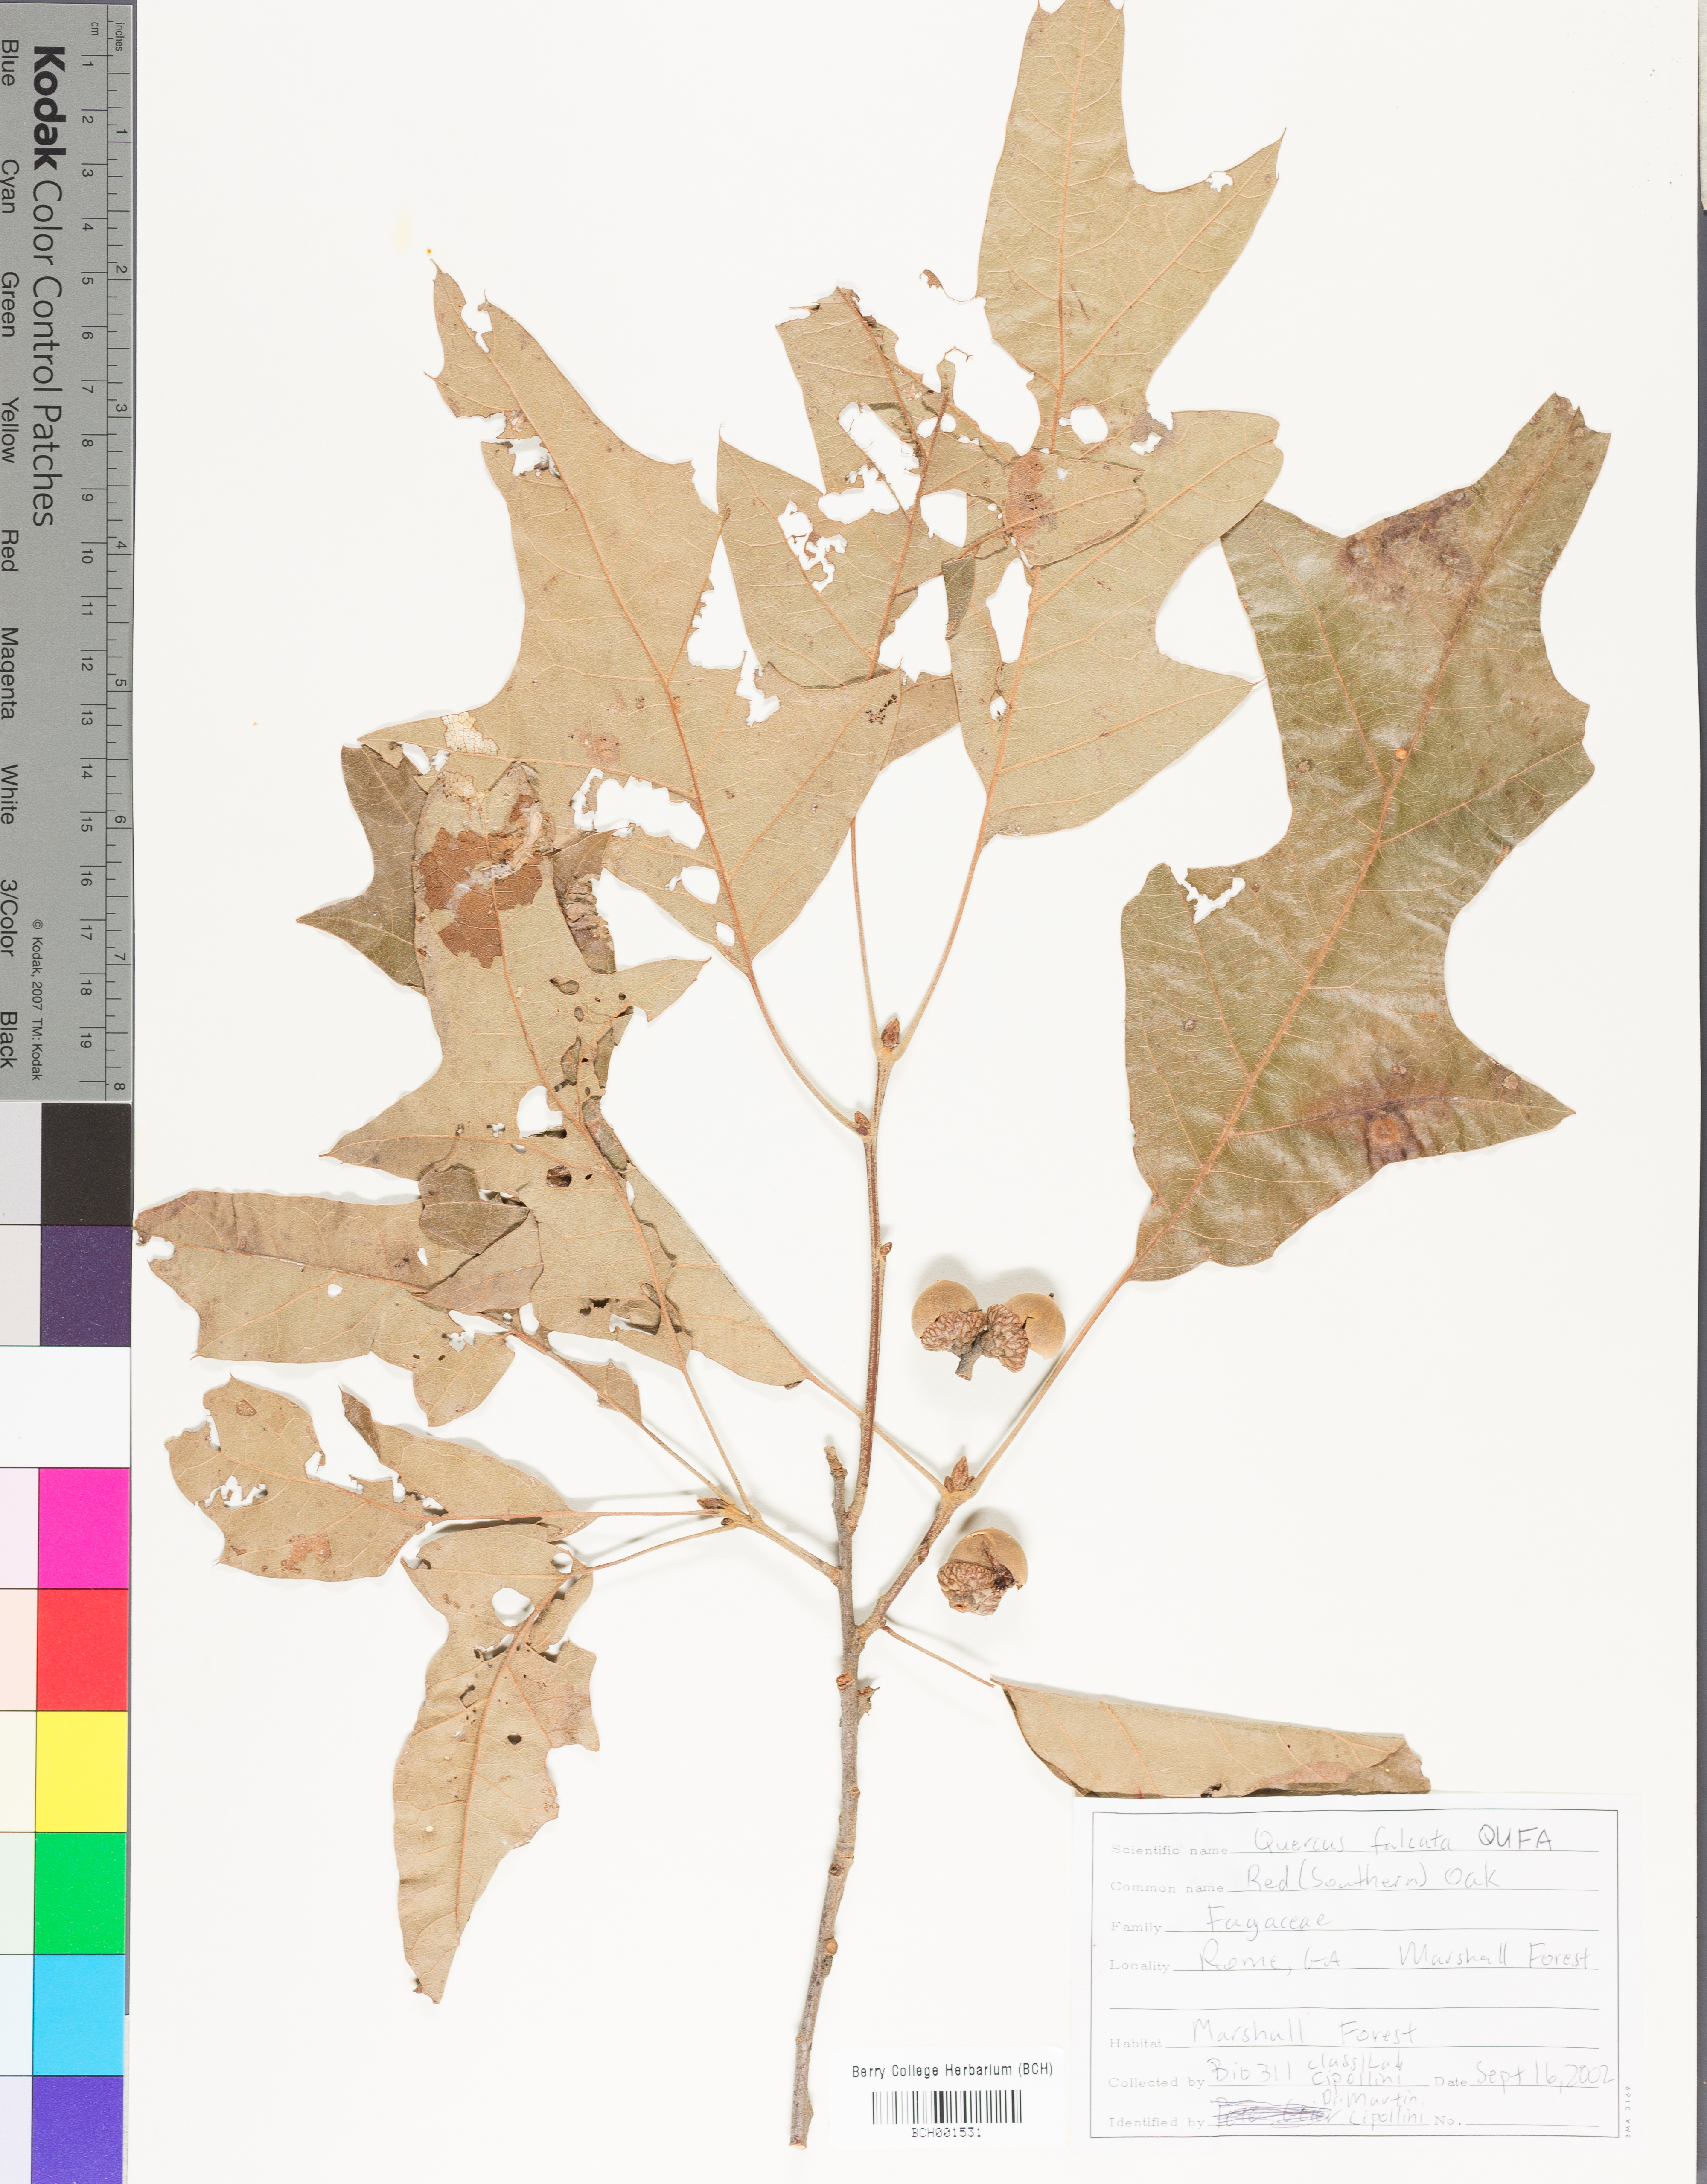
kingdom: Plantae
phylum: Tracheophyta
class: Magnoliopsida
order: Fagales
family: Fagaceae
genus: Quercus
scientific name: Quercus falcata
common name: Southern red oak
